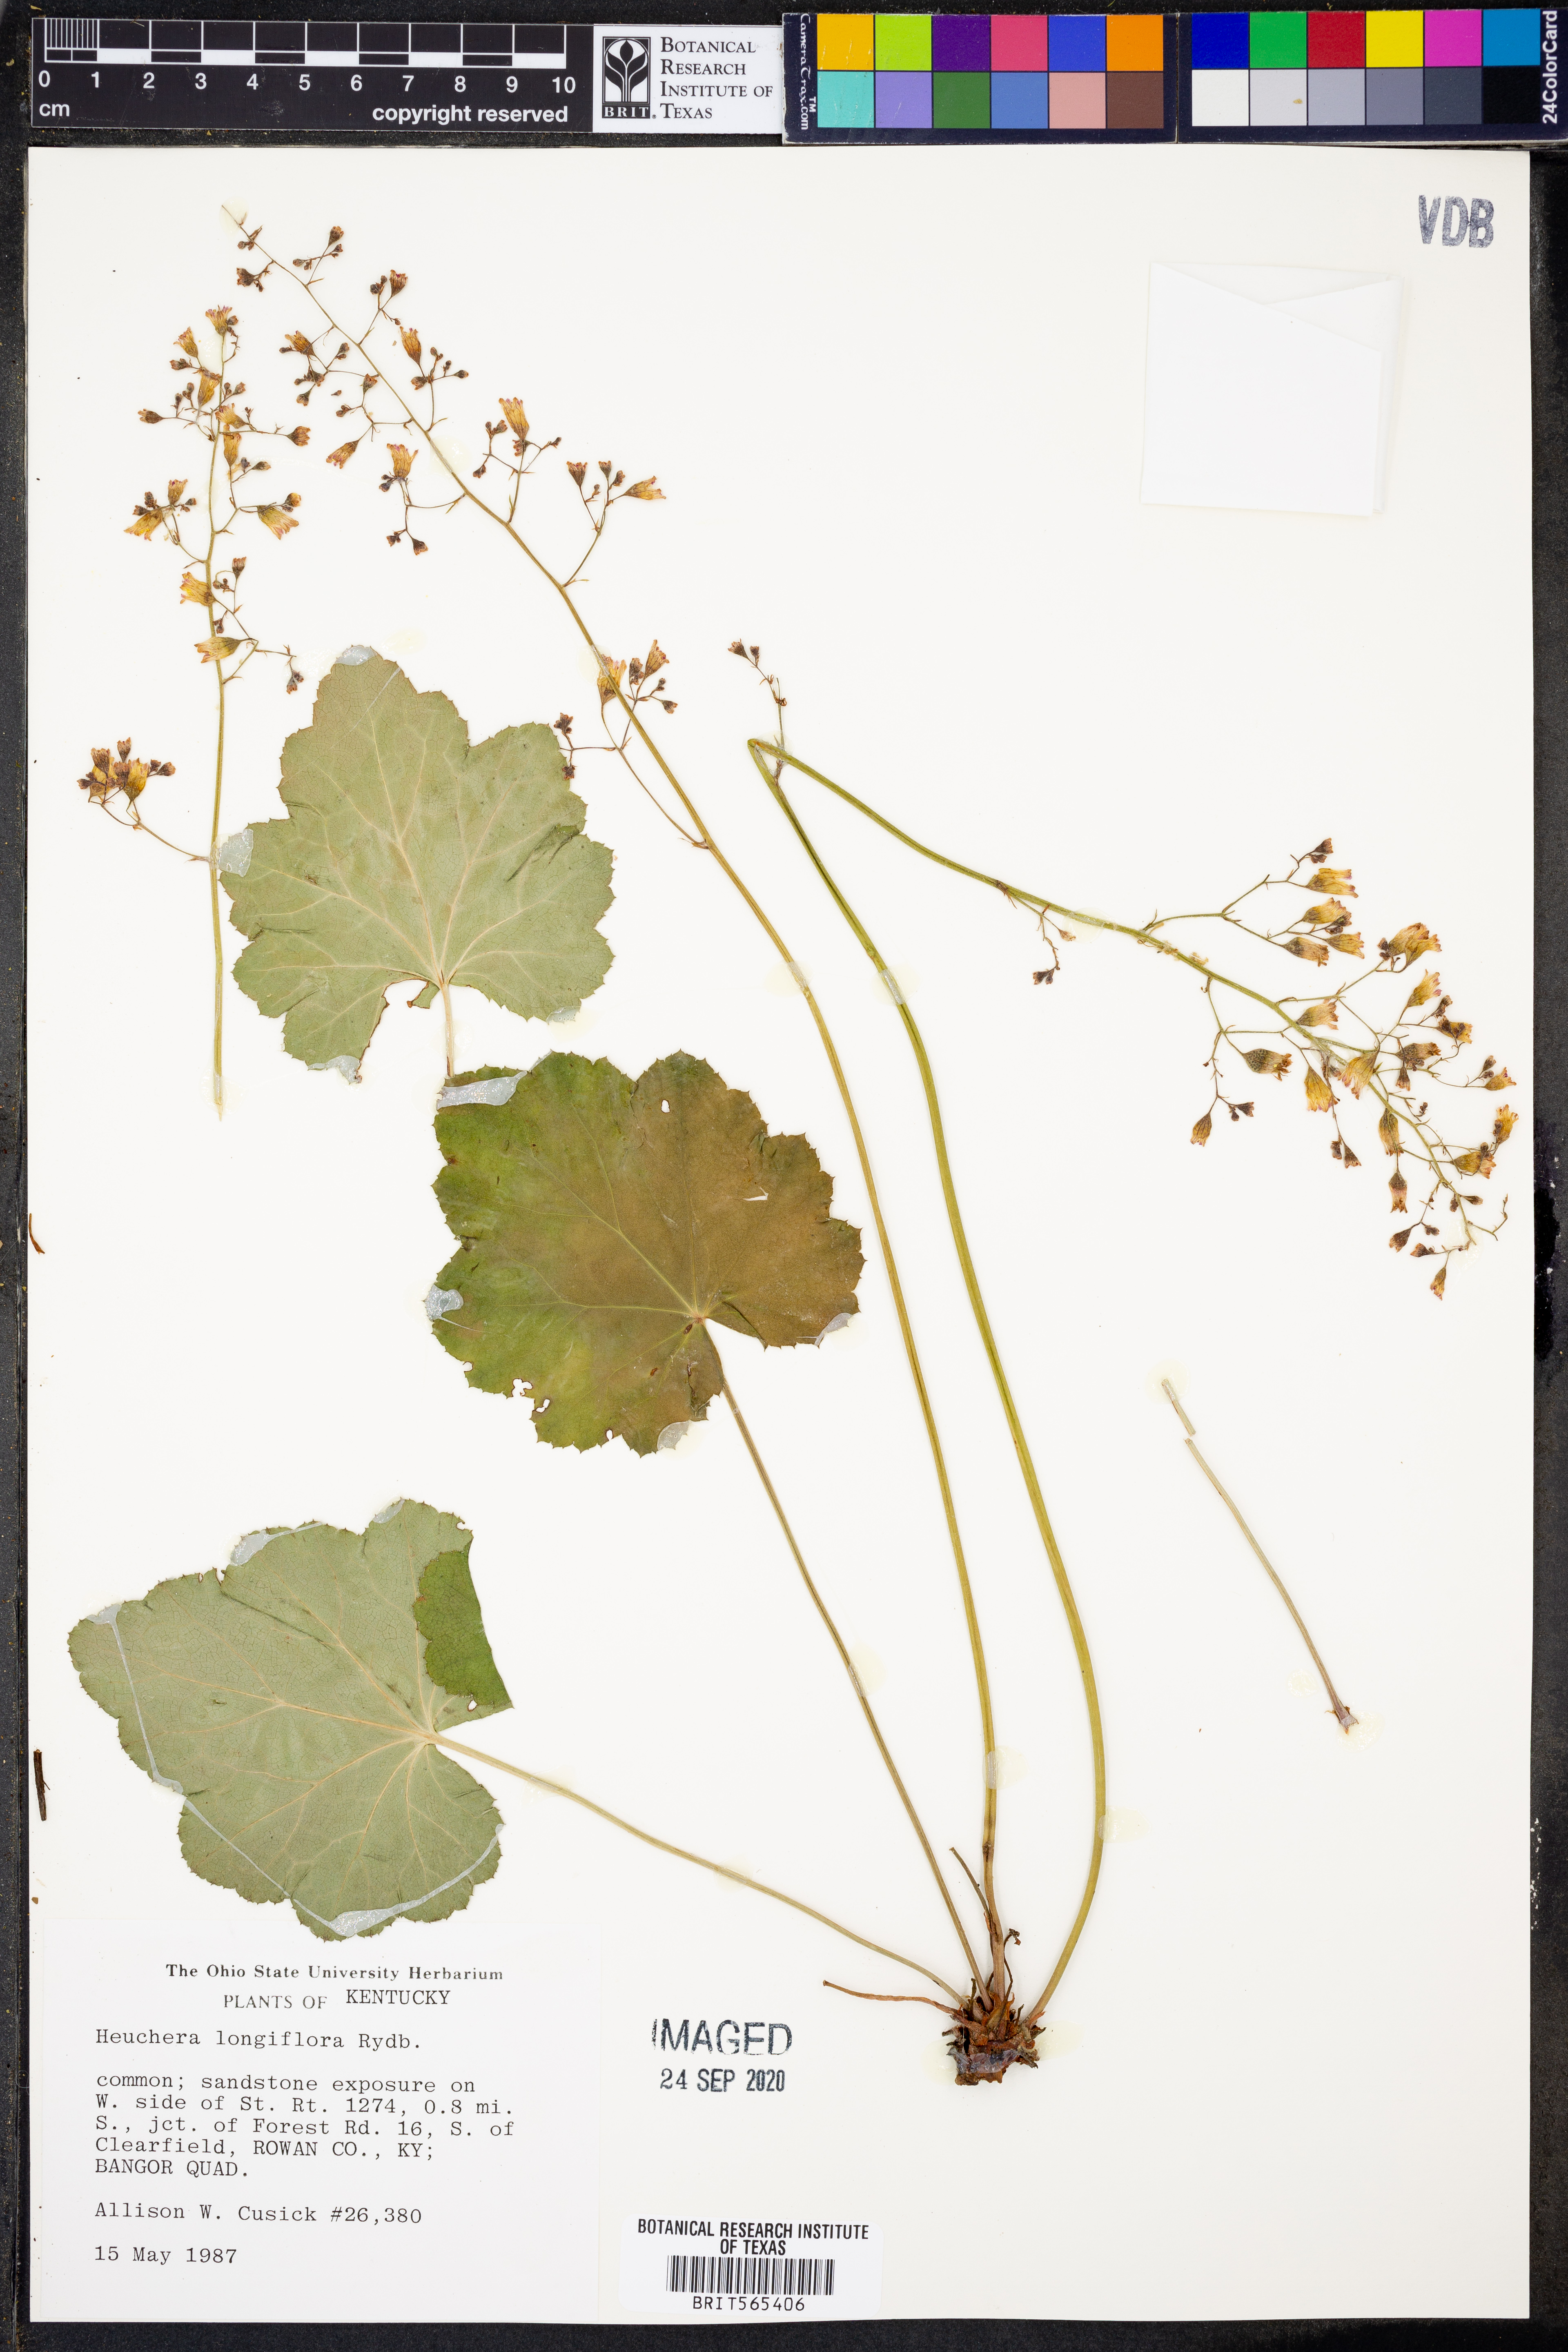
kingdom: Plantae
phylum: Tracheophyta
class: Magnoliopsida
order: Saxifragales
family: Saxifragaceae
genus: Heuchera
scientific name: Heuchera longiflora
